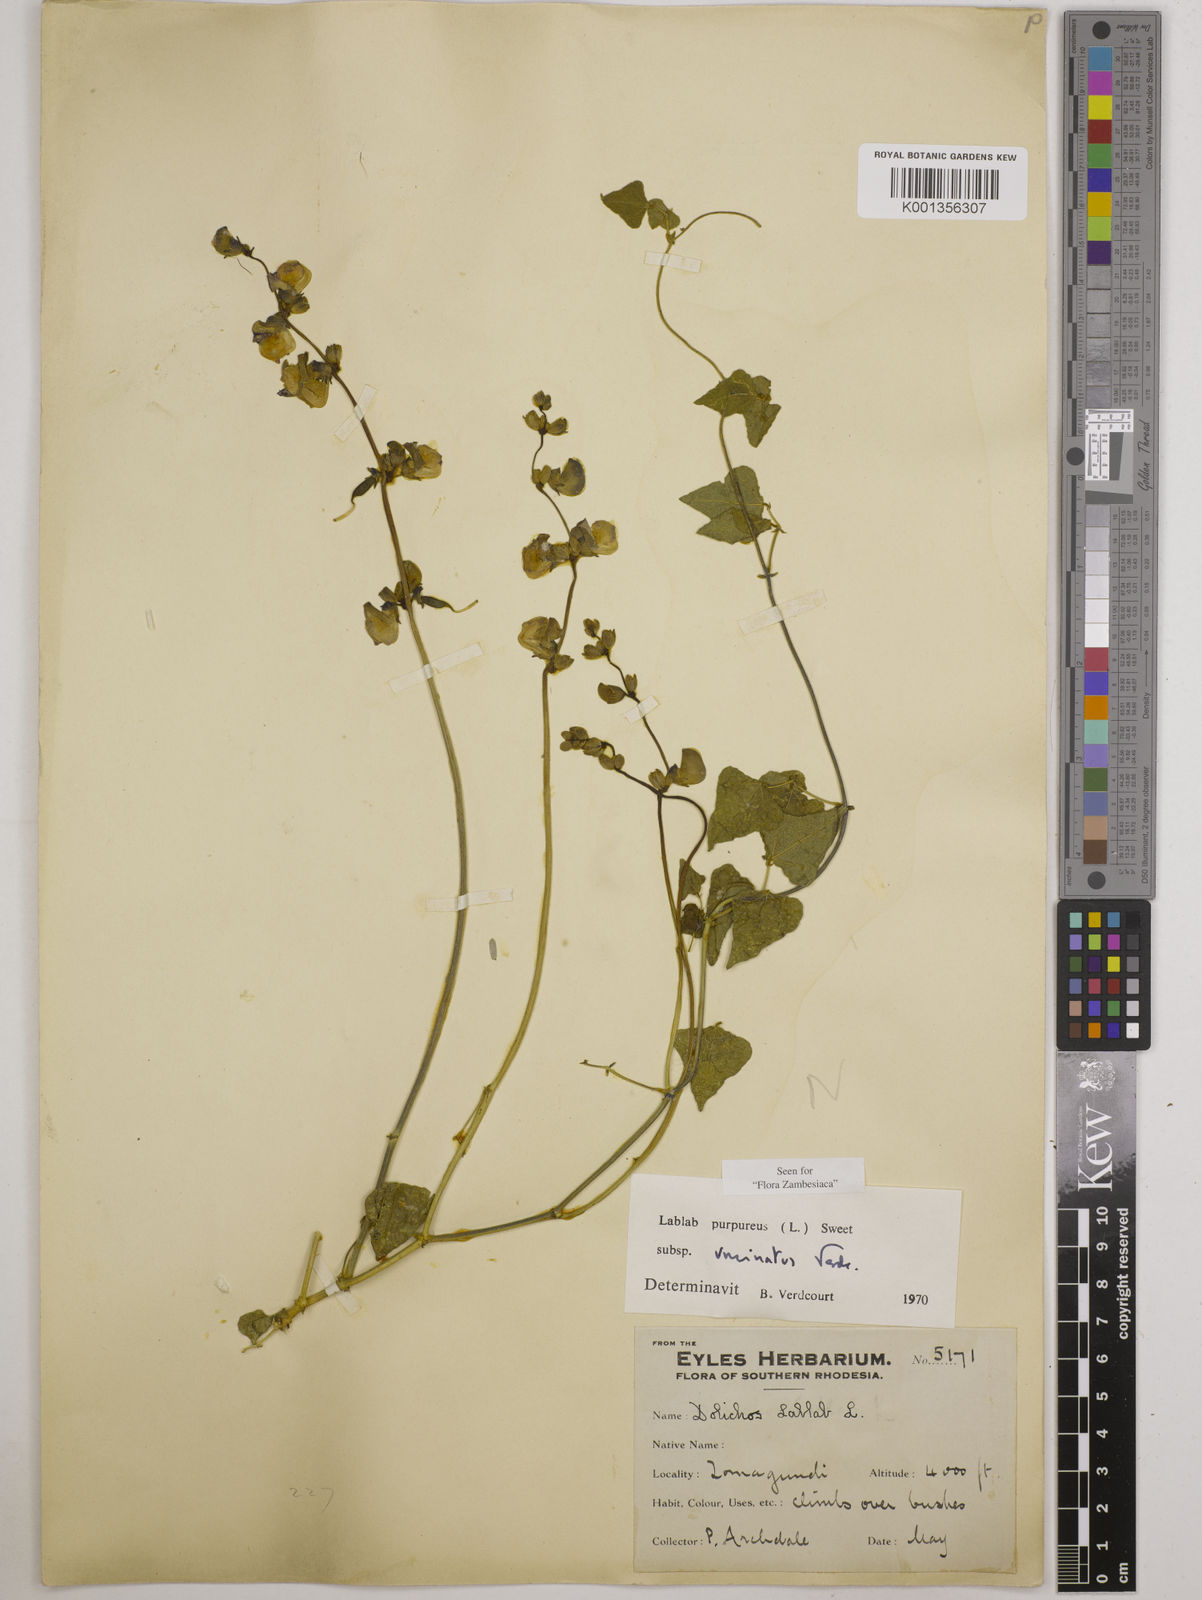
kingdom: Plantae
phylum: Tracheophyta
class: Magnoliopsida
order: Fabales
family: Fabaceae
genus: Lablab
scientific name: Lablab purpureus
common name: Lablab-bean
